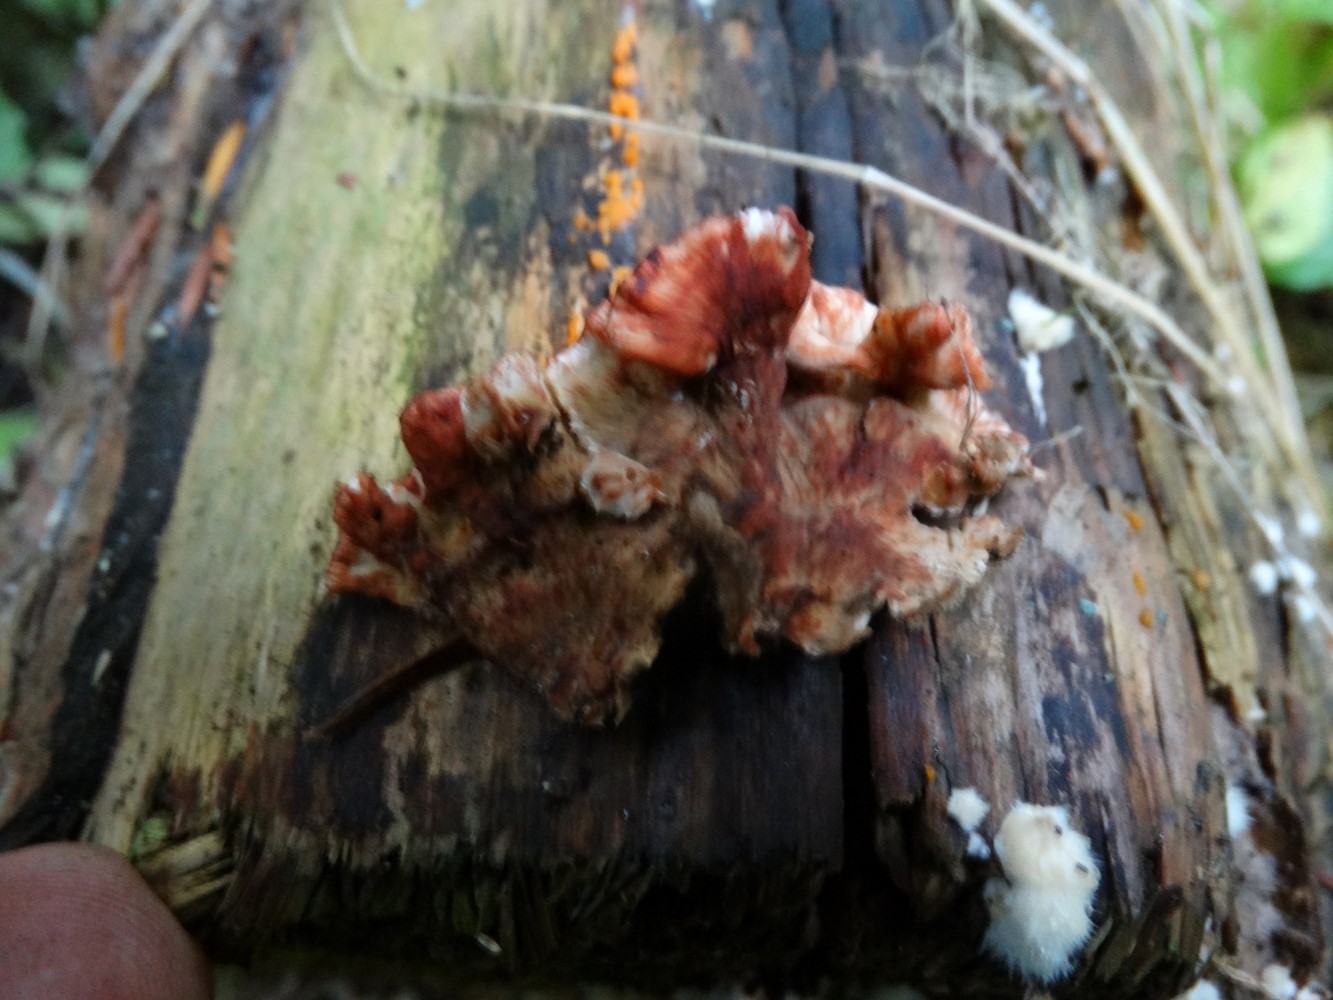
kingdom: Fungi
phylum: Basidiomycota
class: Agaricomycetes
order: Russulales
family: Stereaceae
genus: Stereum
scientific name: Stereum sanguinolentum
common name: blødende lædersvamp
